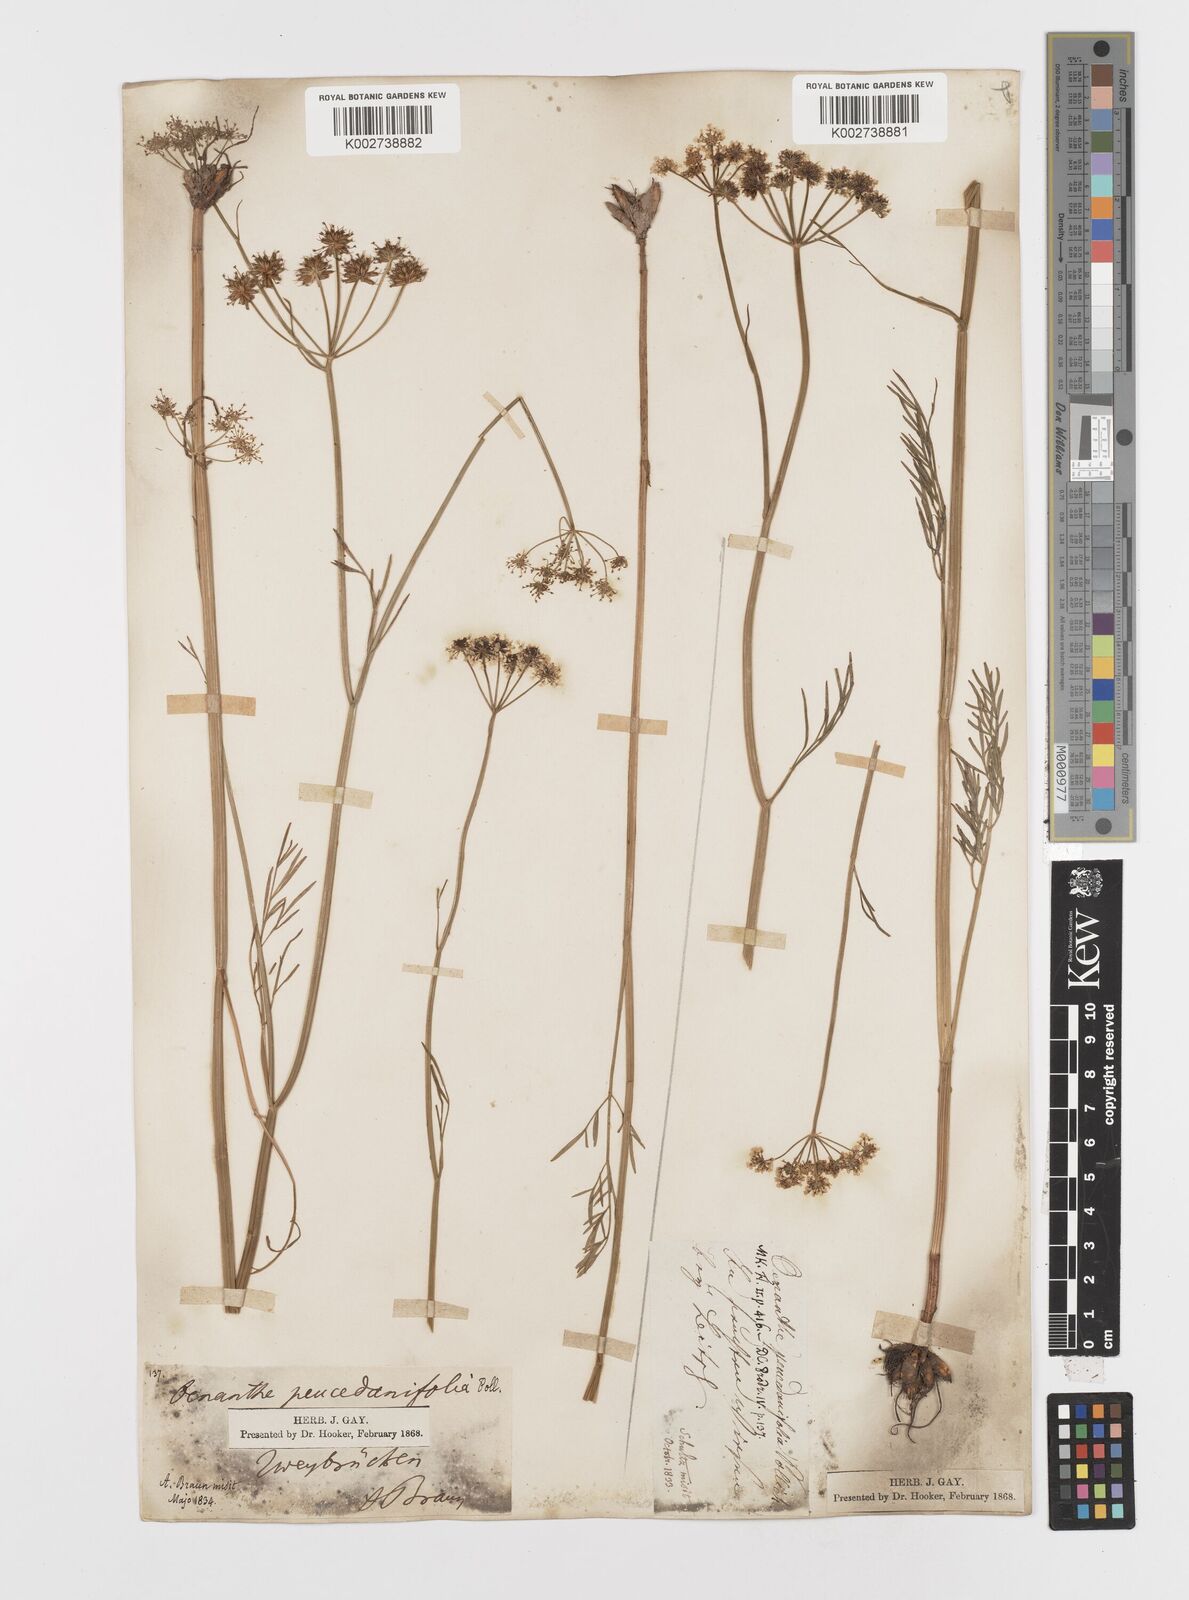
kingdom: Plantae
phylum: Tracheophyta
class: Magnoliopsida
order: Apiales
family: Apiaceae
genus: Oenanthe
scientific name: Oenanthe peucedanifolia
